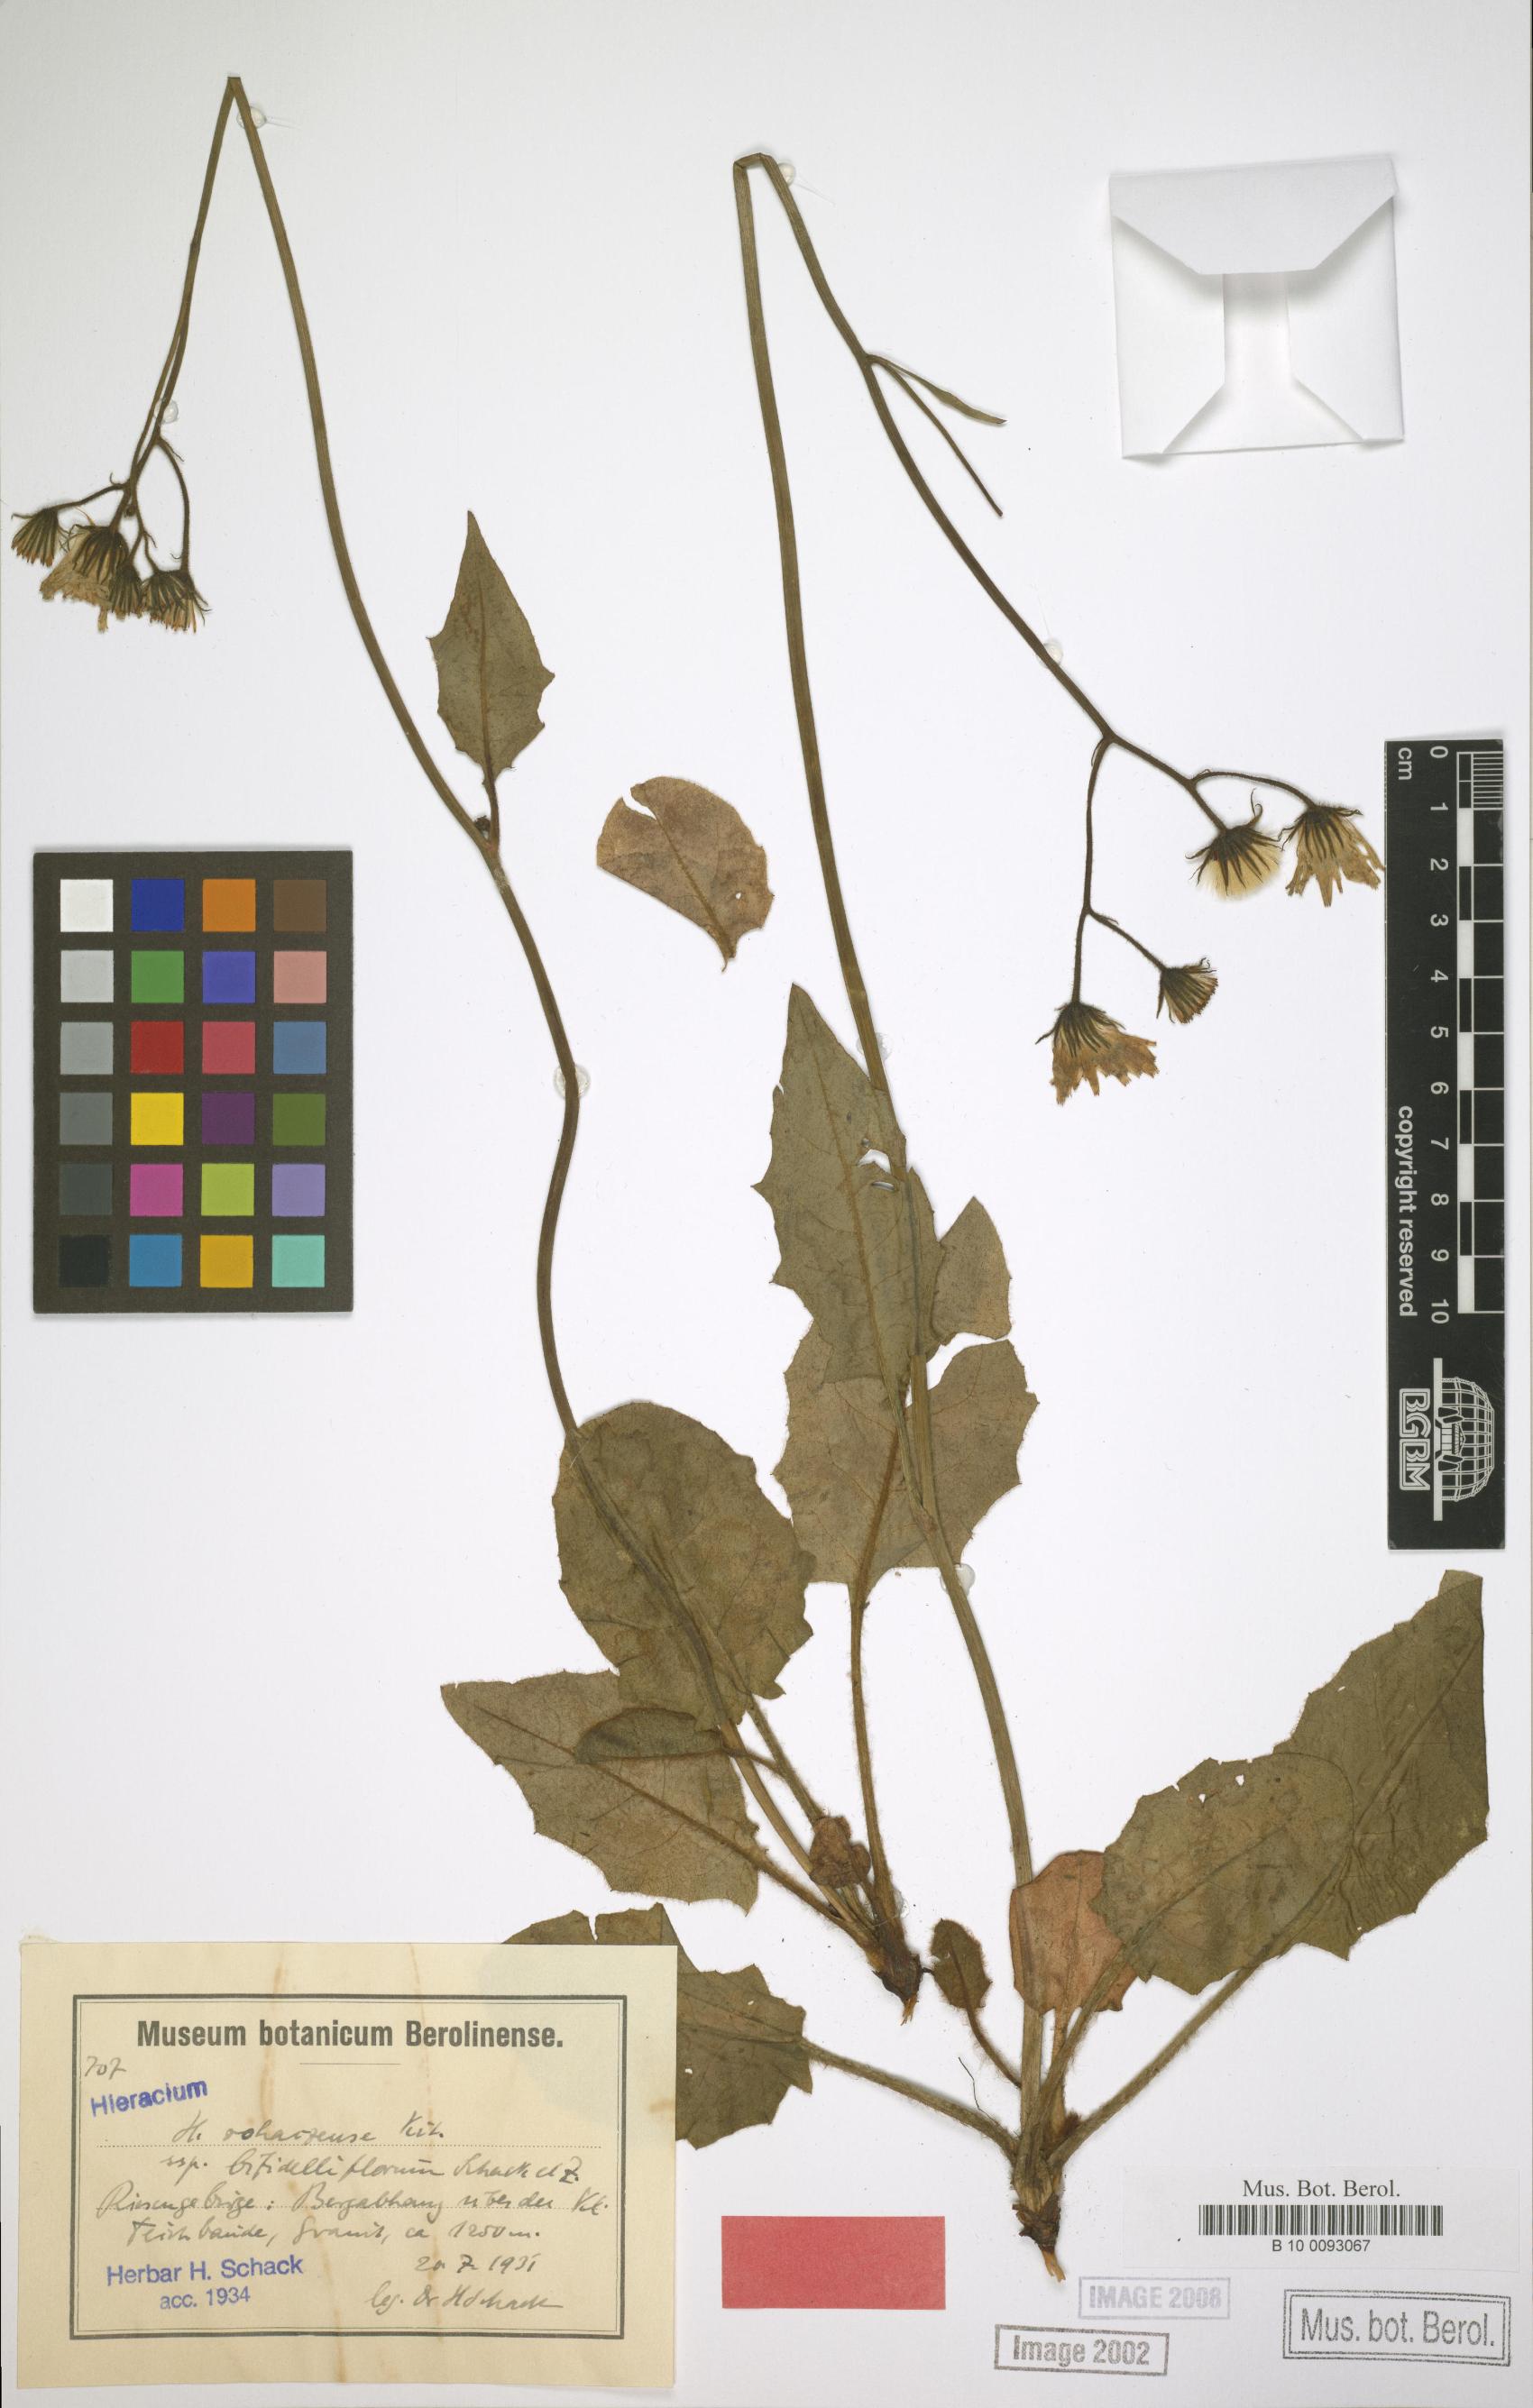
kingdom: Plantae
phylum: Tracheophyta
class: Magnoliopsida
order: Asterales
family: Asteraceae
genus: Hieracium
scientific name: Hieracium rohacsense
